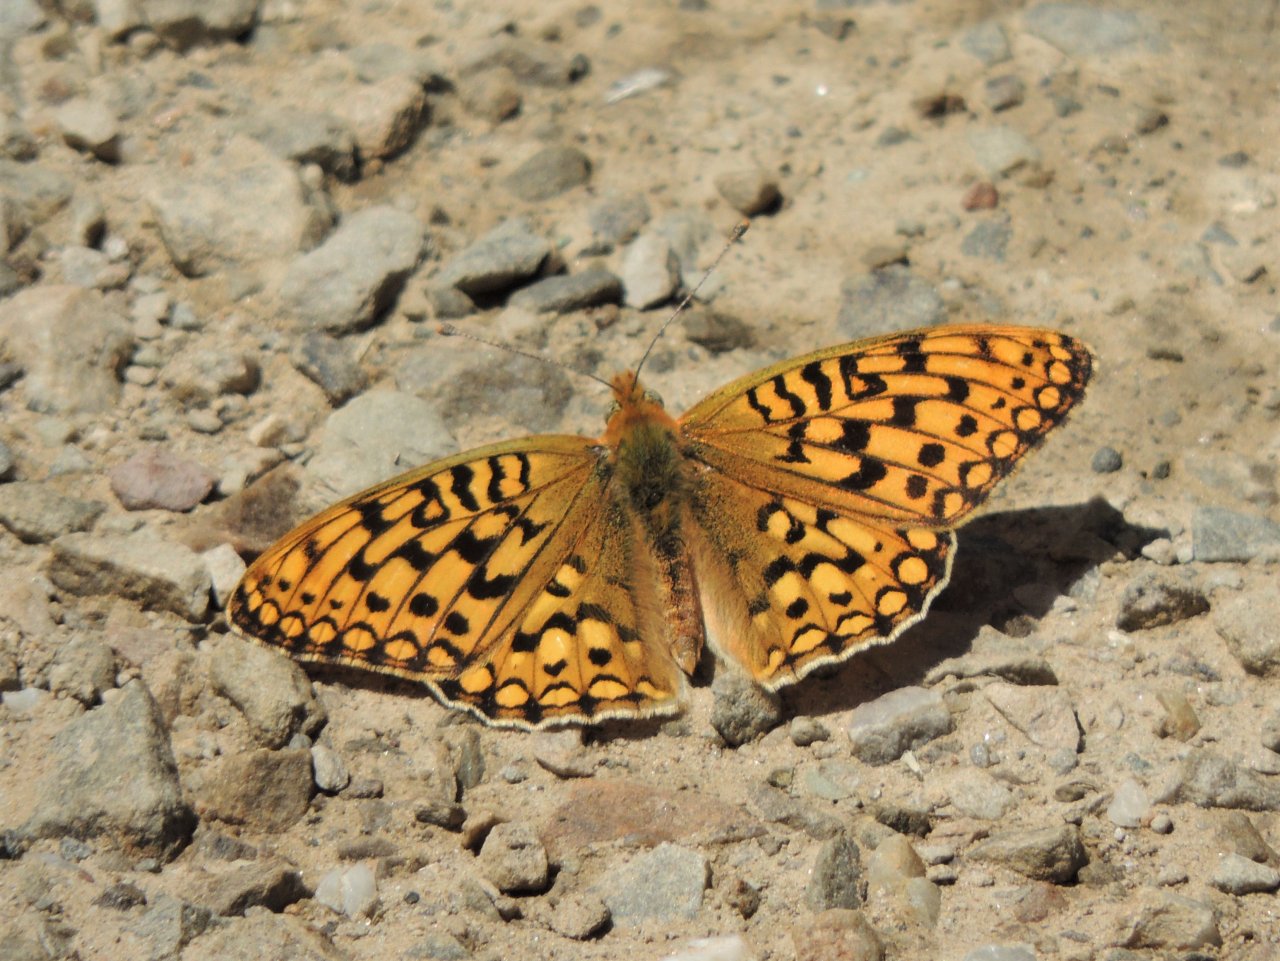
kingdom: Animalia
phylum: Arthropoda
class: Insecta
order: Lepidoptera
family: Nymphalidae
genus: Speyeria
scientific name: Speyeria callippe
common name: Callippe Fritillary
